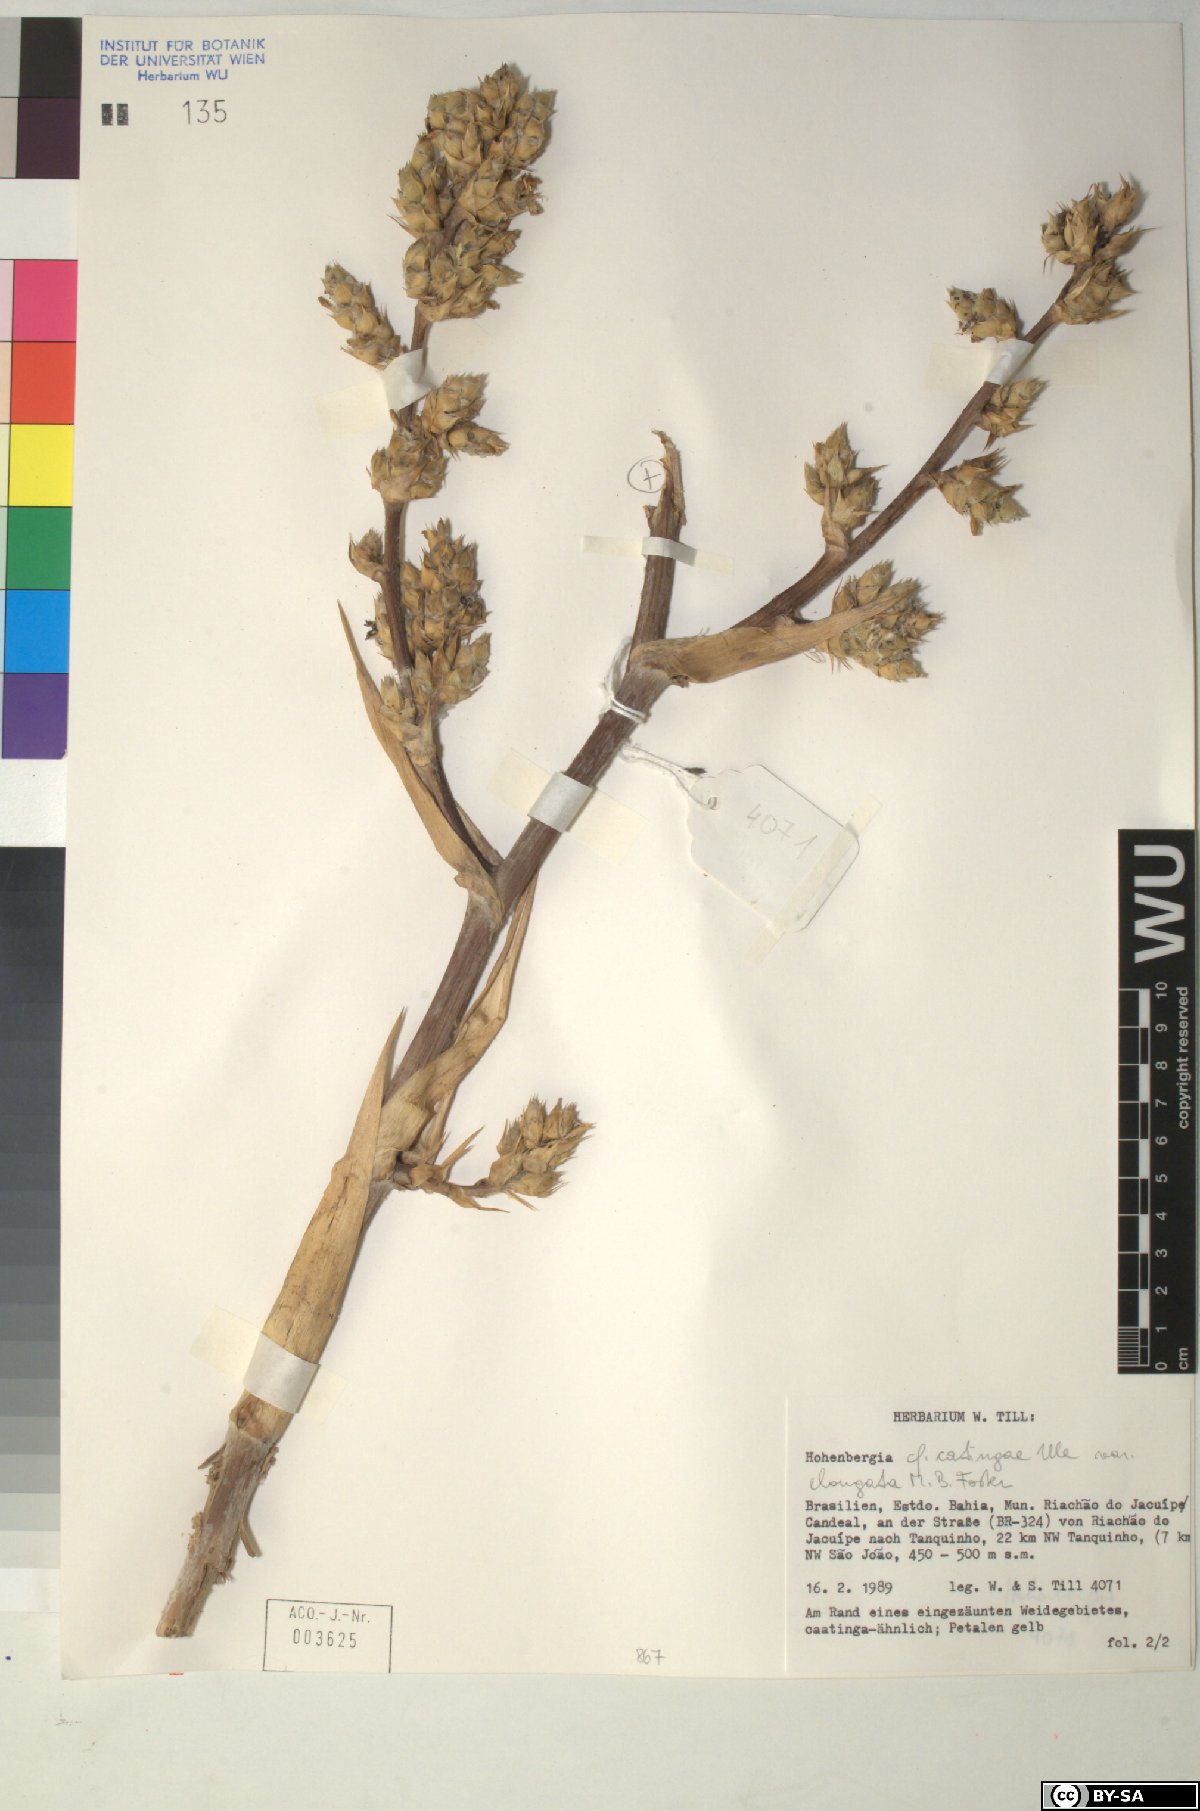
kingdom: Plantae
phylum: Tracheophyta
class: Liliopsida
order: Poales
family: Bromeliaceae
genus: Hohenbergia
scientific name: Hohenbergia
